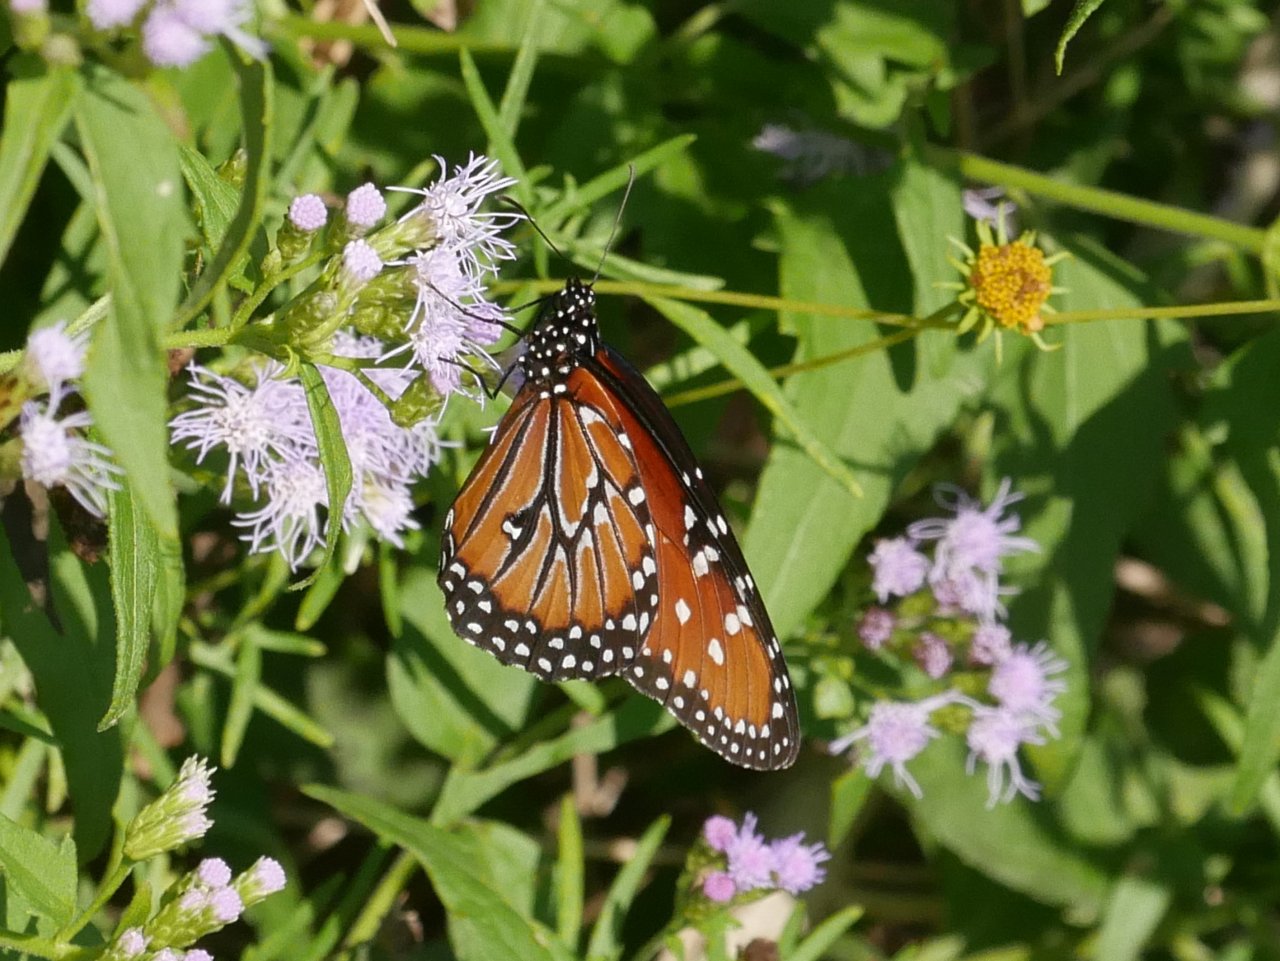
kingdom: Animalia
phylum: Arthropoda
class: Insecta
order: Lepidoptera
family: Nymphalidae
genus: Danaus
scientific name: Danaus gilippus
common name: Queen
